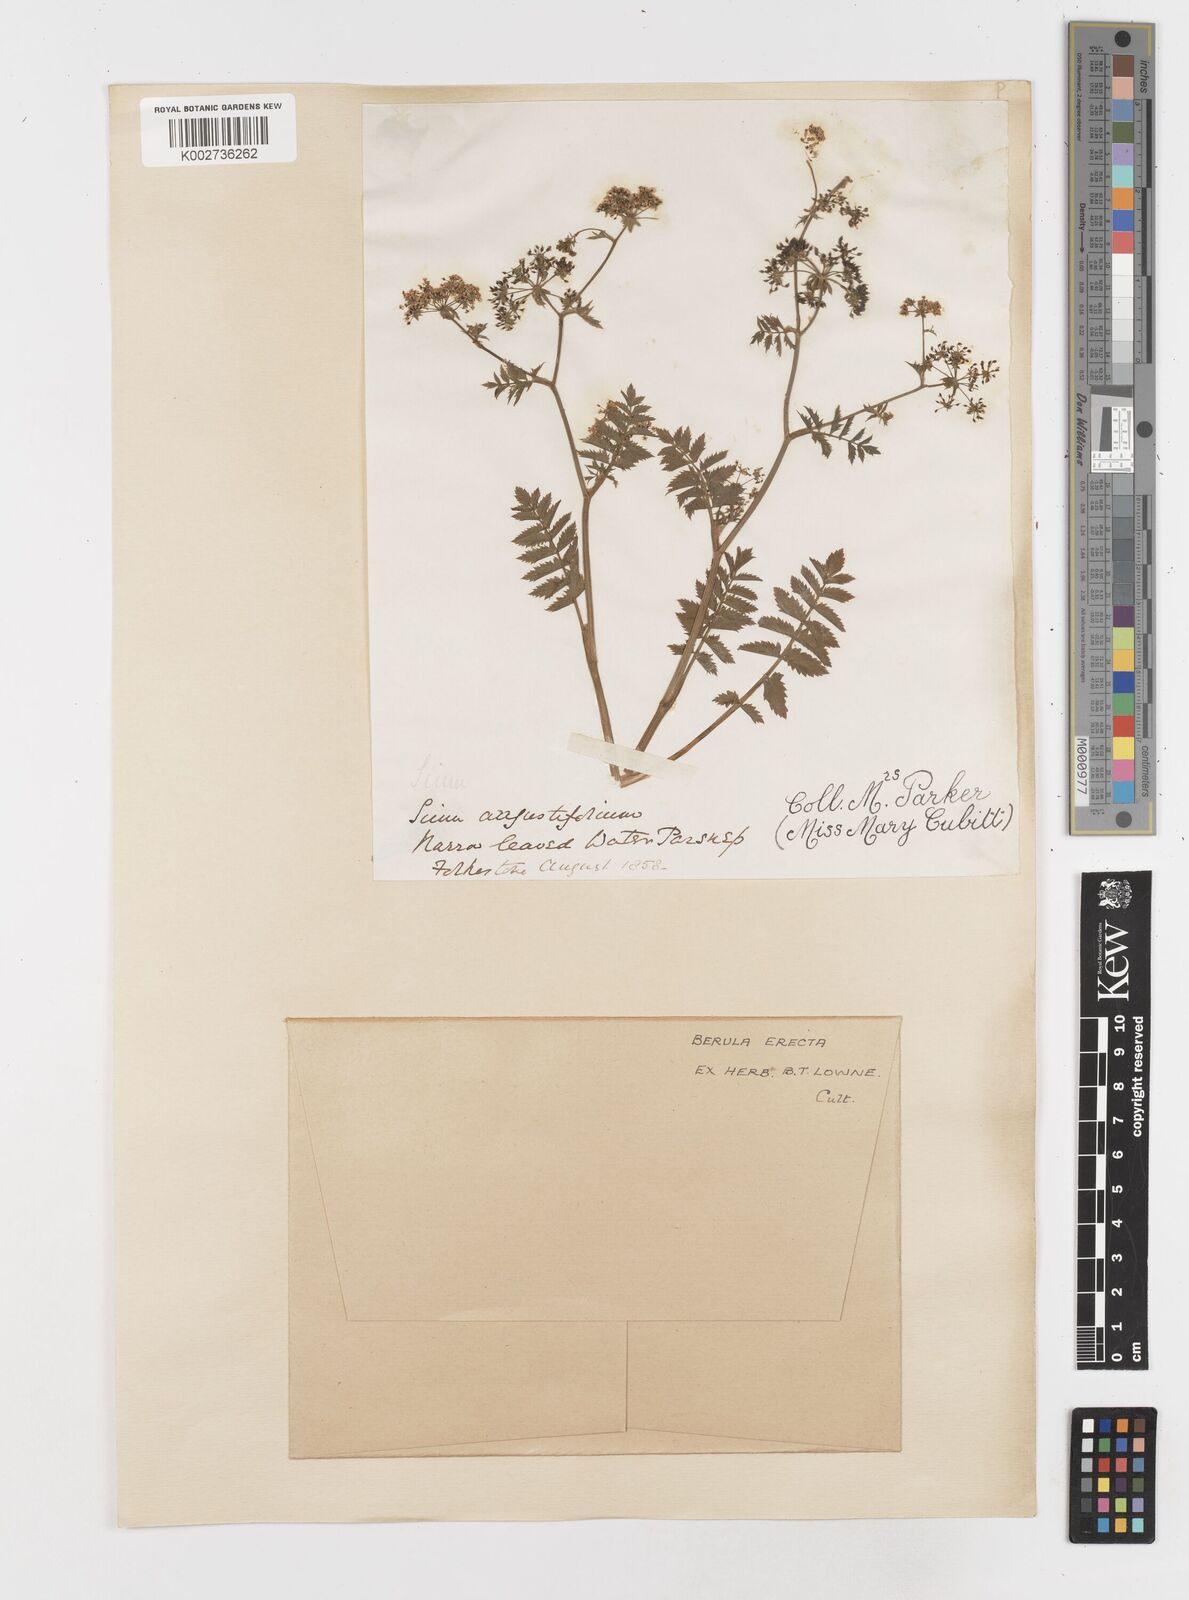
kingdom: Plantae
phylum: Tracheophyta
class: Magnoliopsida
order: Apiales
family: Apiaceae
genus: Berula
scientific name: Berula erecta
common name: Lesser water-parsnip
